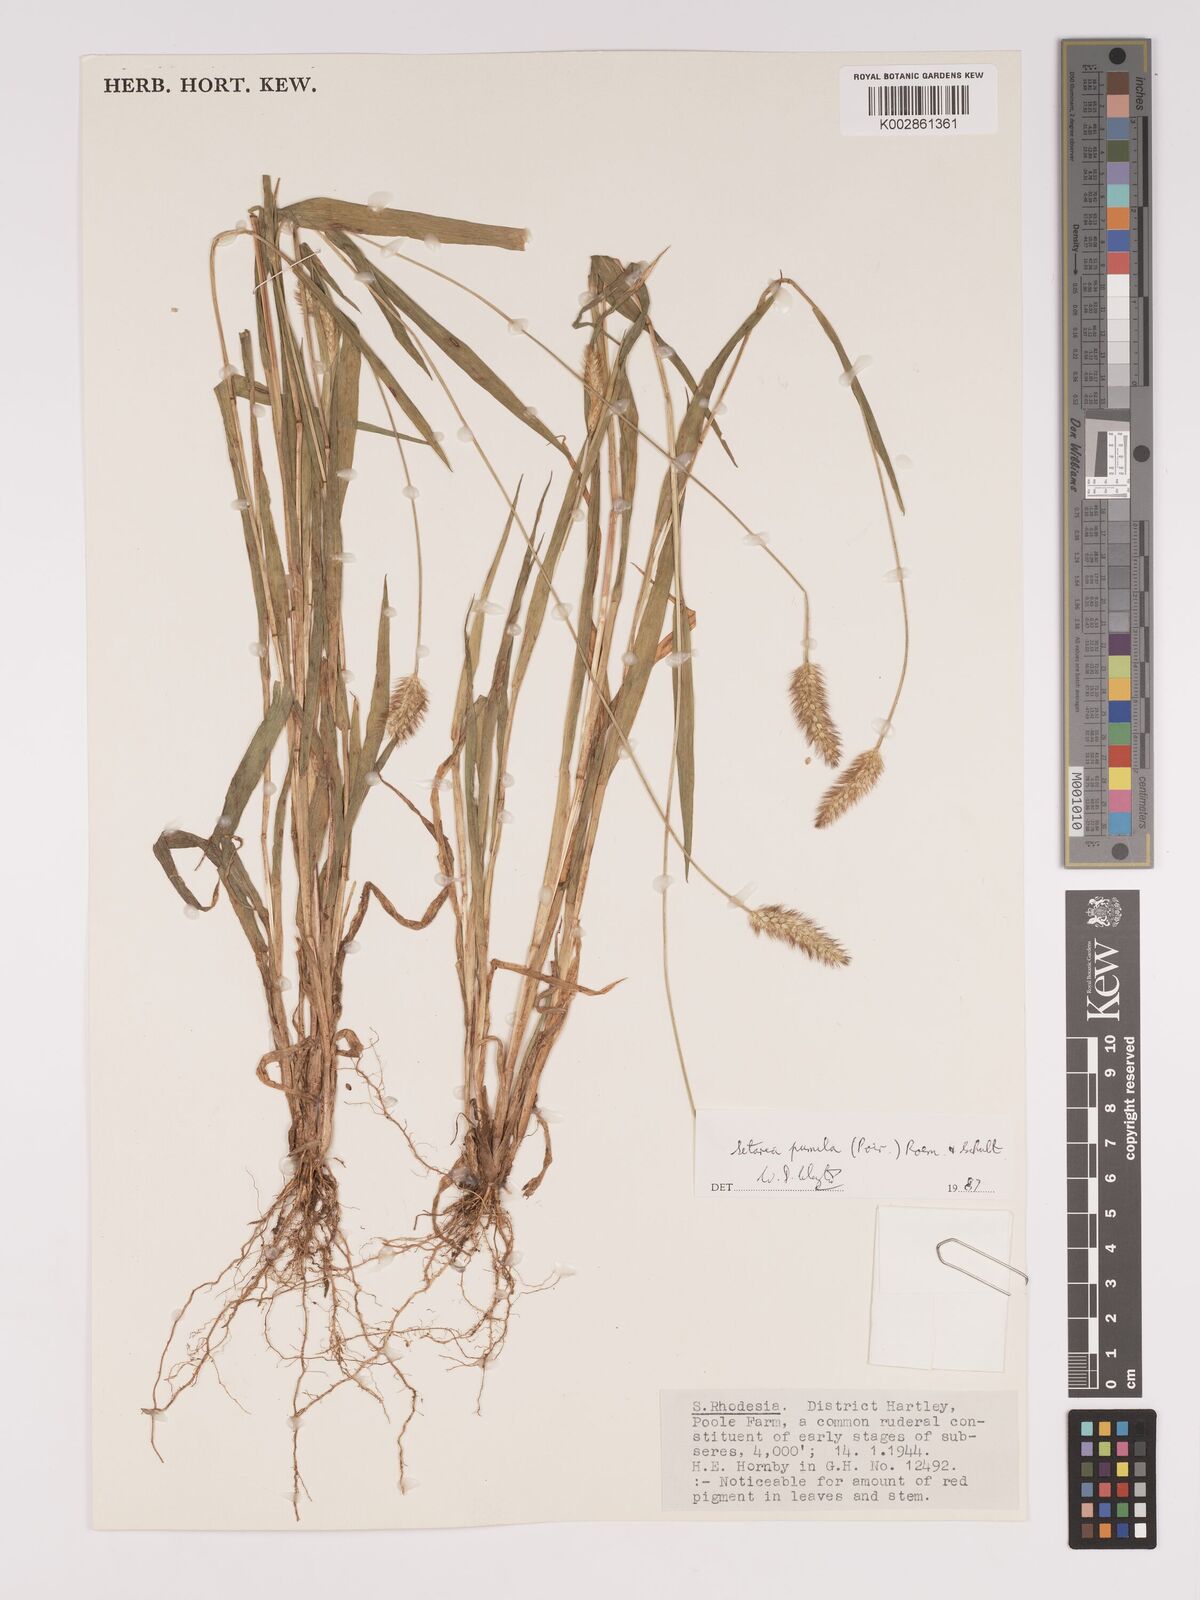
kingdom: Plantae
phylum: Tracheophyta
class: Liliopsida
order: Poales
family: Poaceae
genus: Setaria
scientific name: Setaria pumila
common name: Yellow bristle-grass
